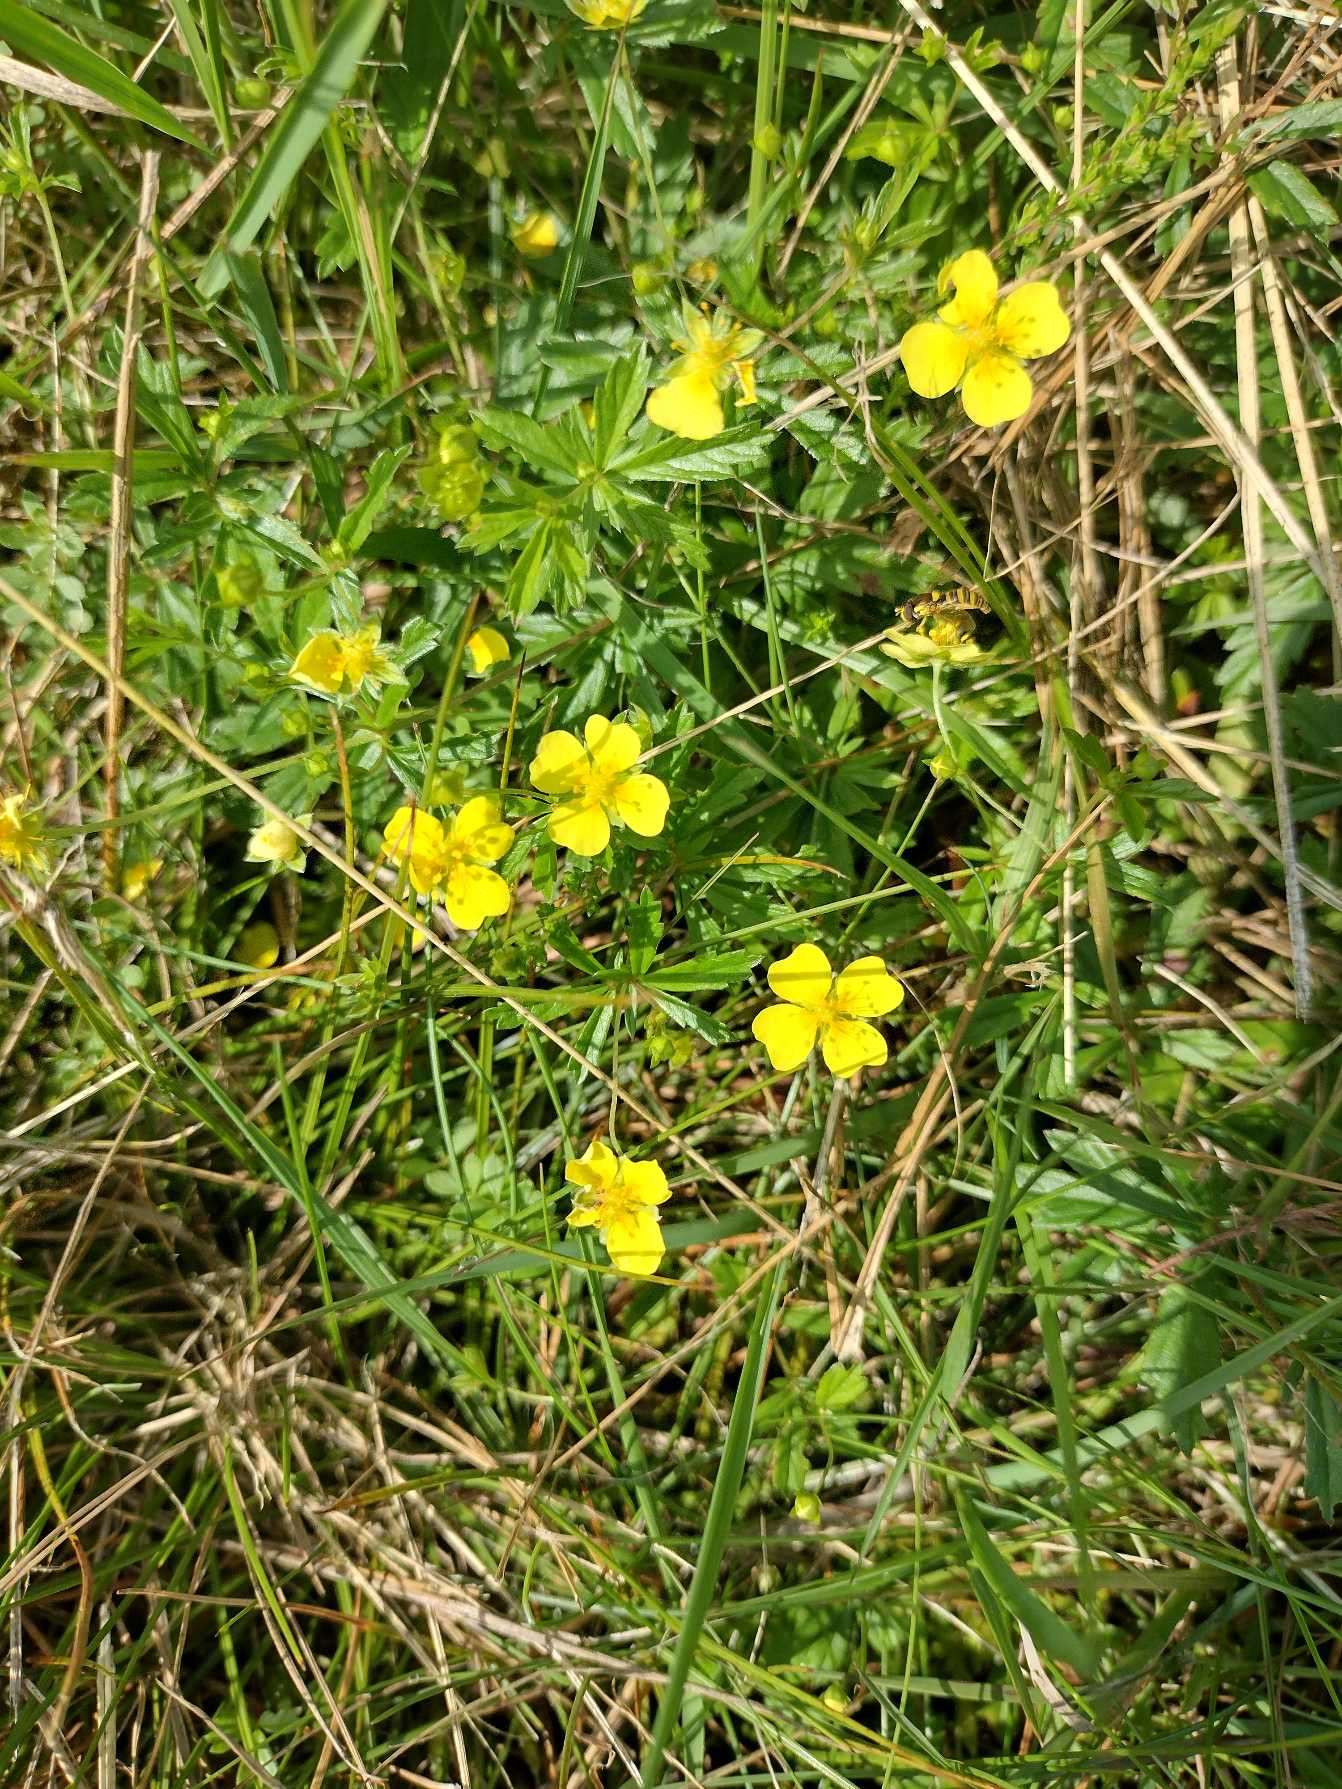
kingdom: Plantae
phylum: Tracheophyta
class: Magnoliopsida
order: Rosales
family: Rosaceae
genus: Potentilla
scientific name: Potentilla erecta
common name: Tormentil
